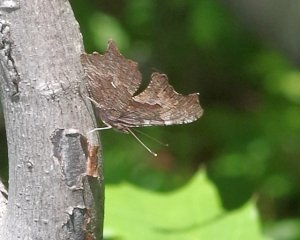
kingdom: Animalia
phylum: Arthropoda
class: Insecta
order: Lepidoptera
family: Nymphalidae
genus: Polygonia
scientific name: Polygonia progne
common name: Gray Comma
